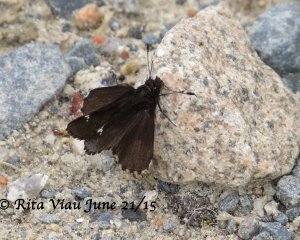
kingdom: Animalia
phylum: Arthropoda
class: Insecta
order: Lepidoptera
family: Hesperiidae
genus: Mastor
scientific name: Mastor vialis
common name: Common Roadside-Skipper
